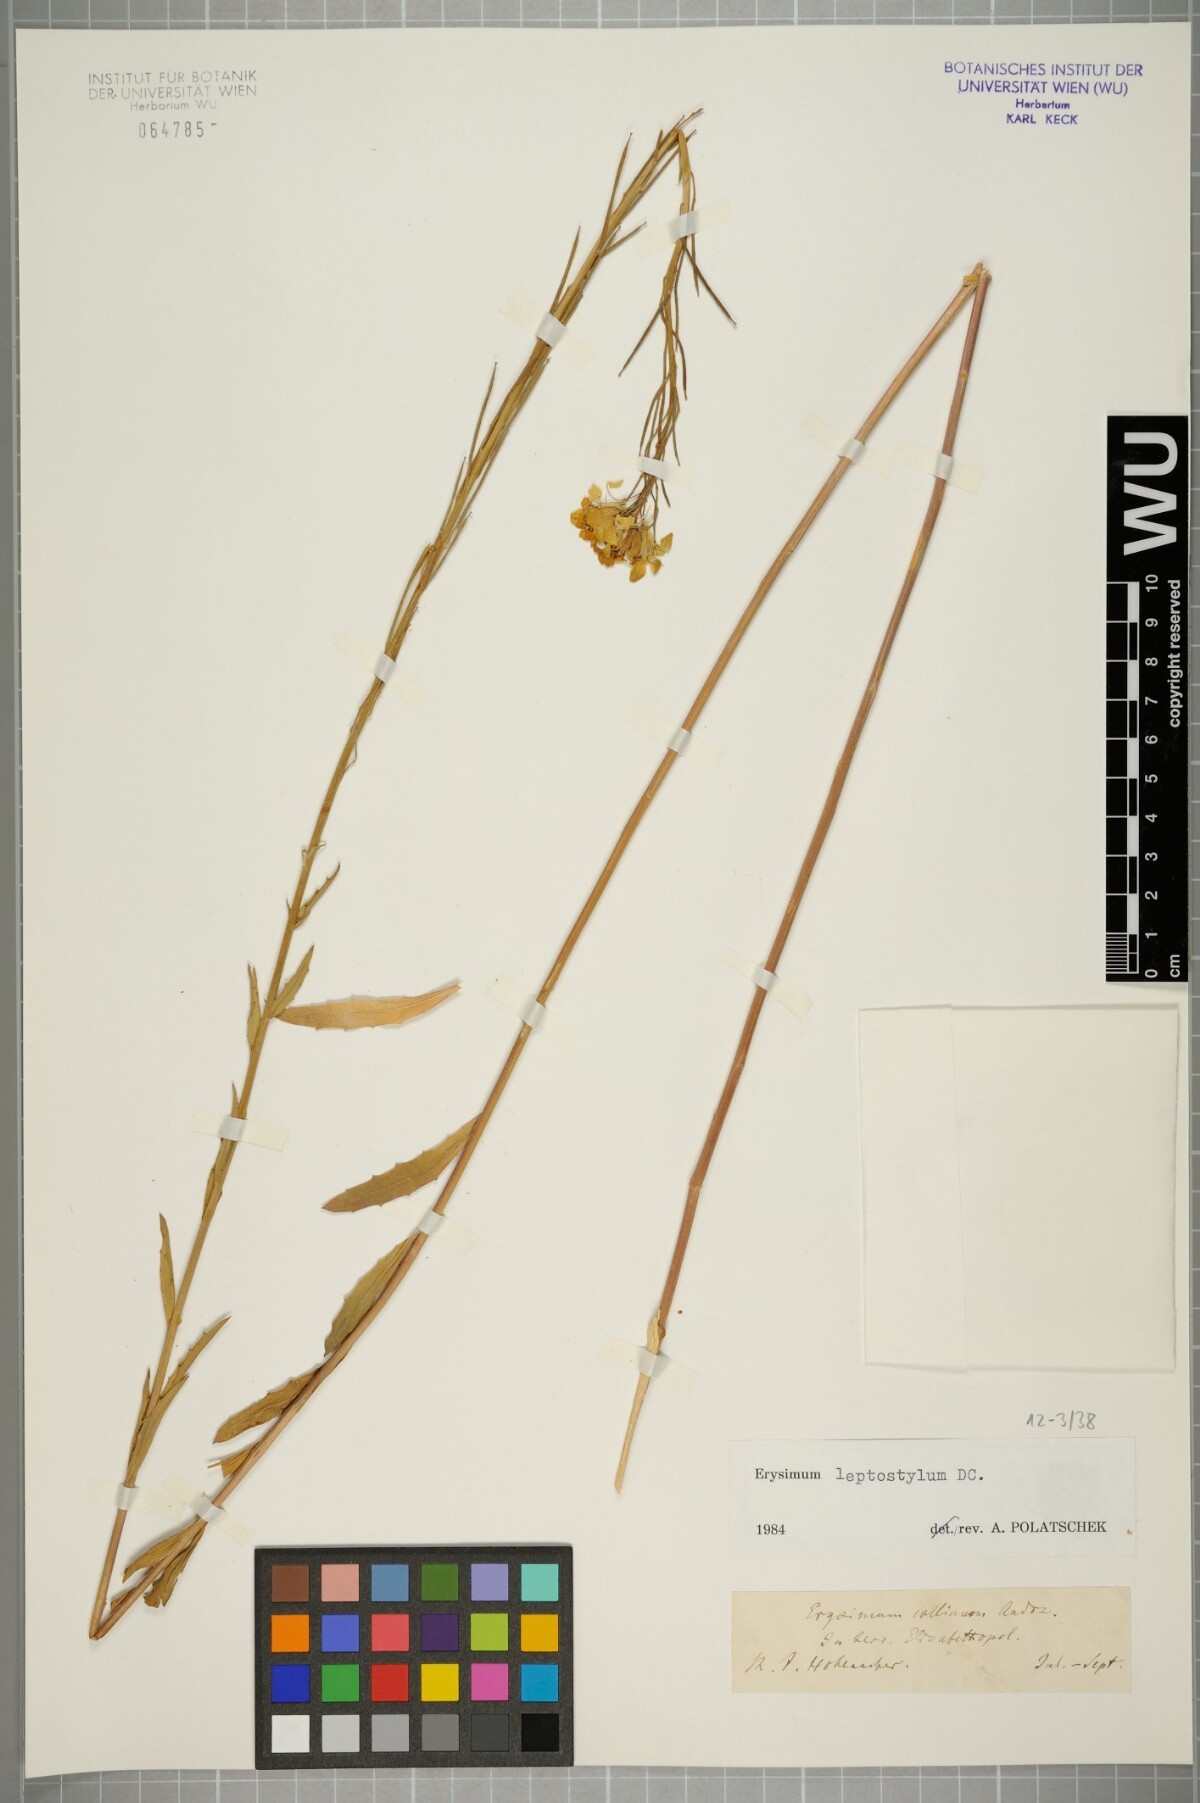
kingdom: Plantae
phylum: Tracheophyta
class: Magnoliopsida
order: Brassicales
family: Brassicaceae
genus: Erysimum
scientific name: Erysimum leptostylum
